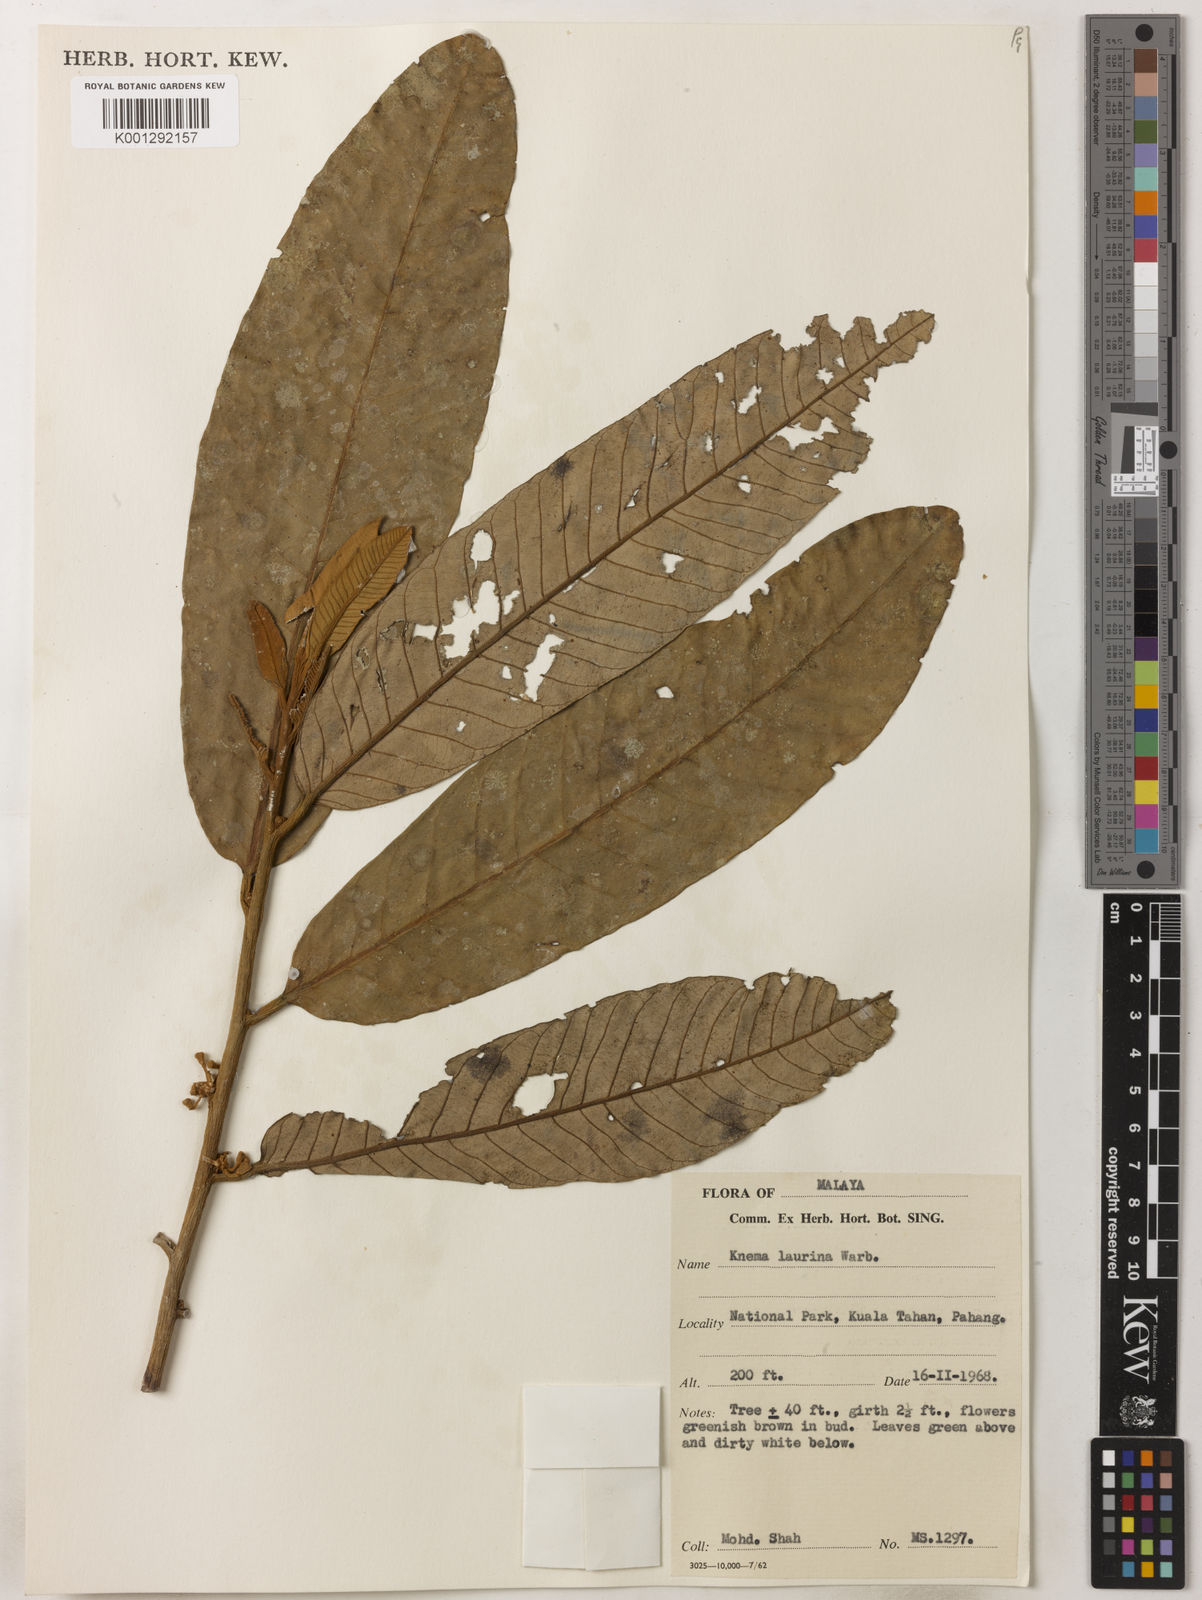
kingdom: Plantae
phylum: Tracheophyta
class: Magnoliopsida
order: Magnoliales
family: Myristicaceae
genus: Knema
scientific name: Knema laurina
